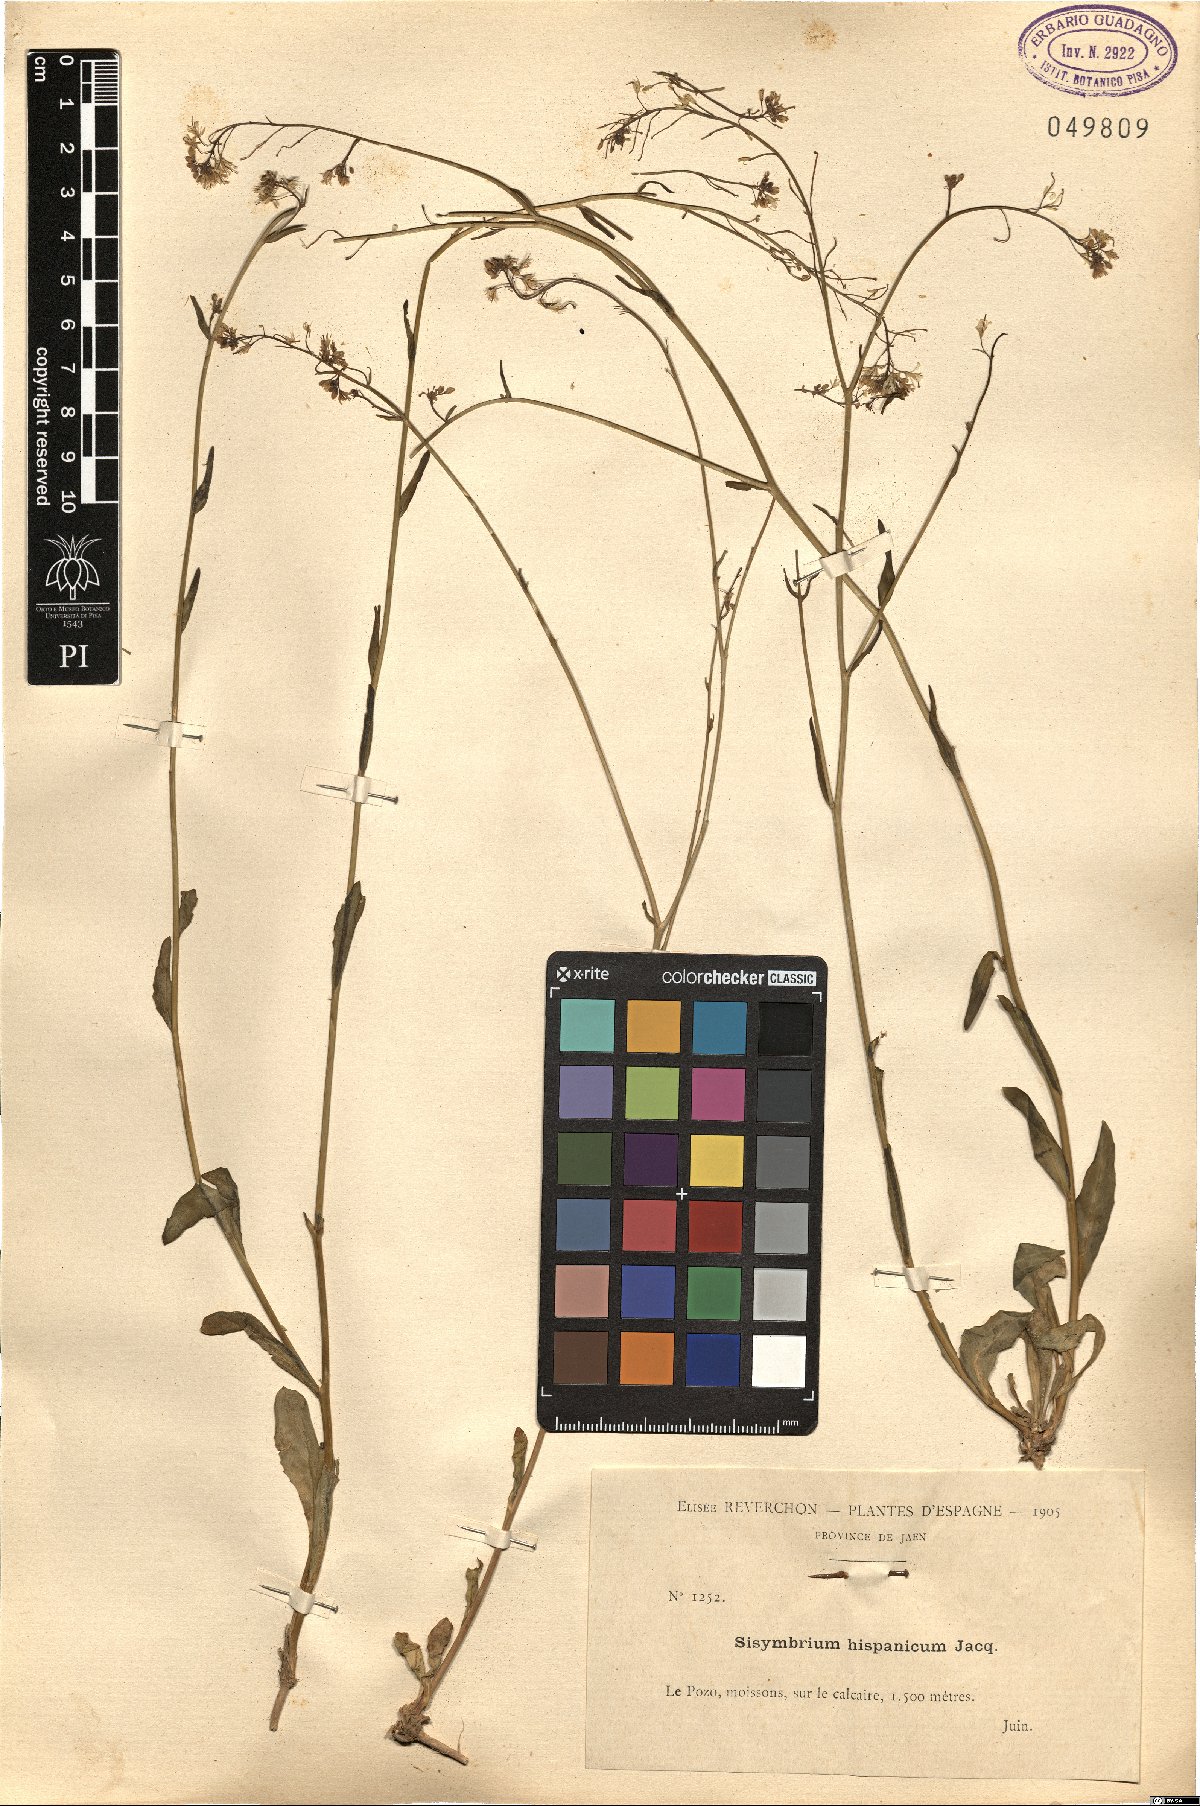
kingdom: Plantae
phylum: Tracheophyta
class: Magnoliopsida
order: Brassicales
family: Brassicaceae
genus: Sisymbrium
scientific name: Sisymbrium hispanicum
